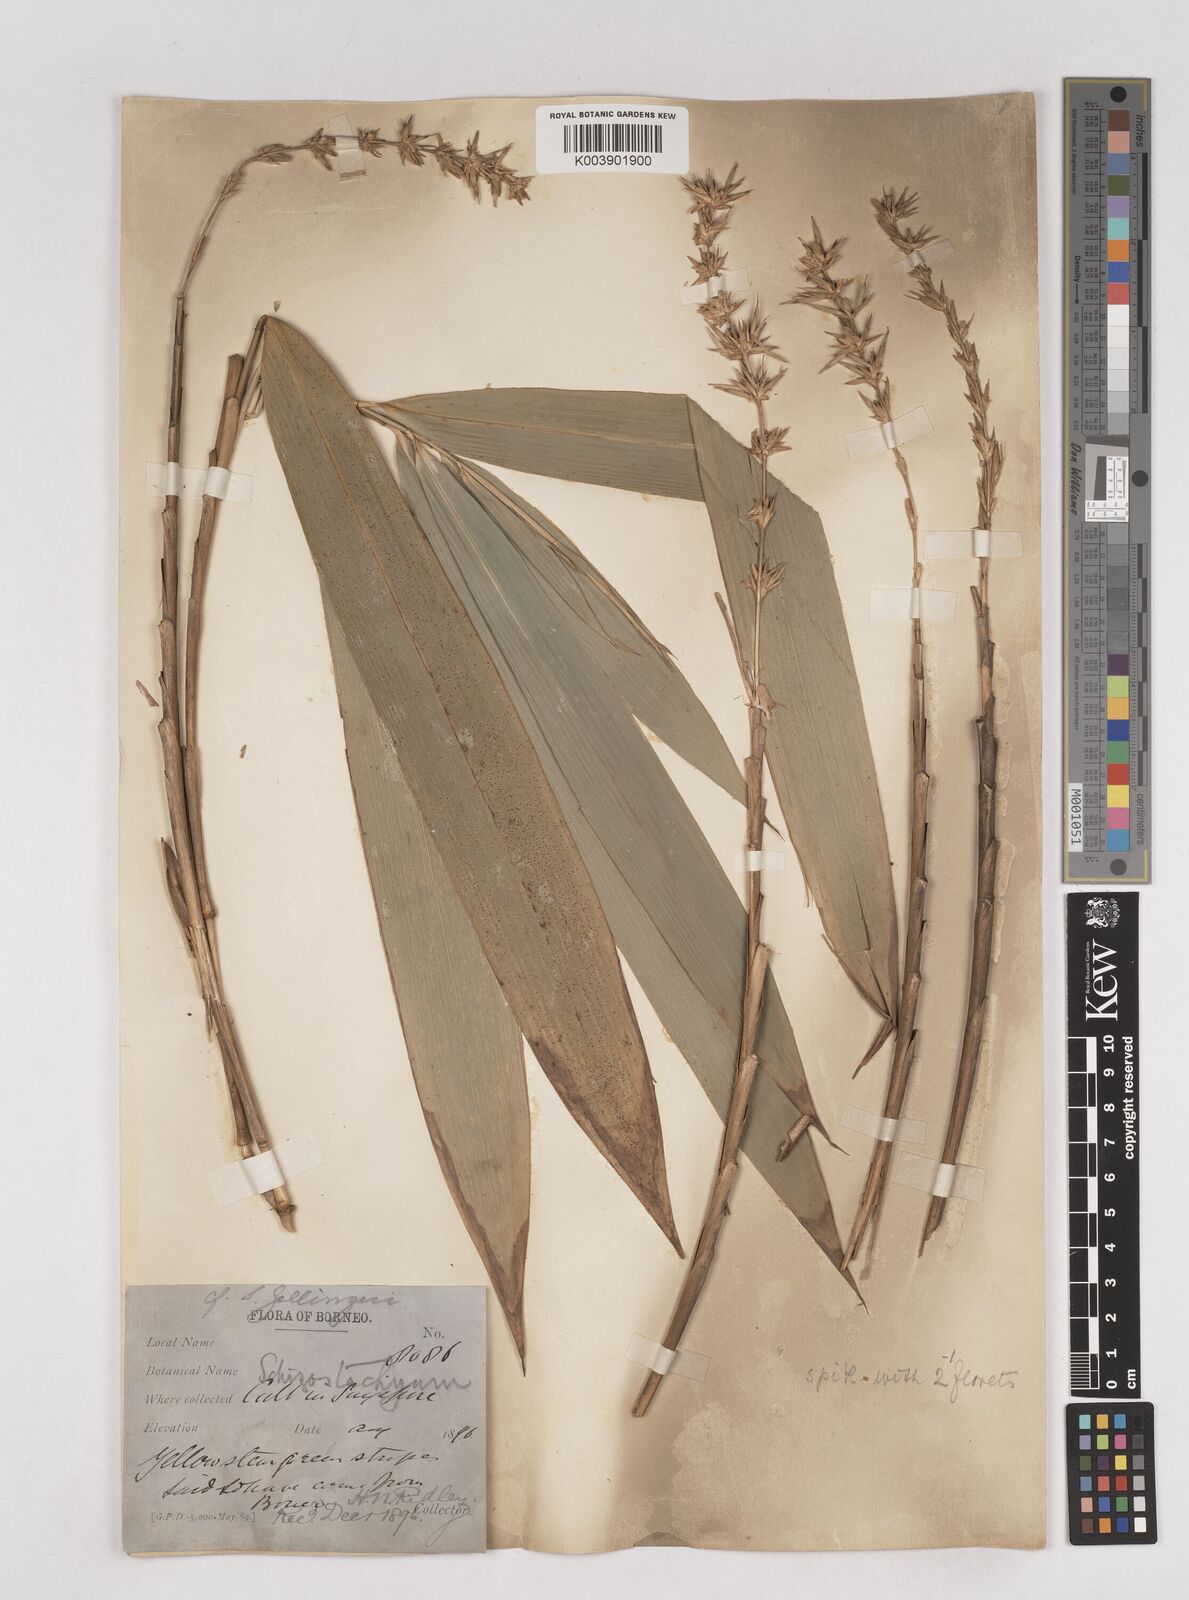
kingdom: Plantae
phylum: Tracheophyta
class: Liliopsida
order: Poales
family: Poaceae
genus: Schizostachyum
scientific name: Schizostachyum brachycladum
